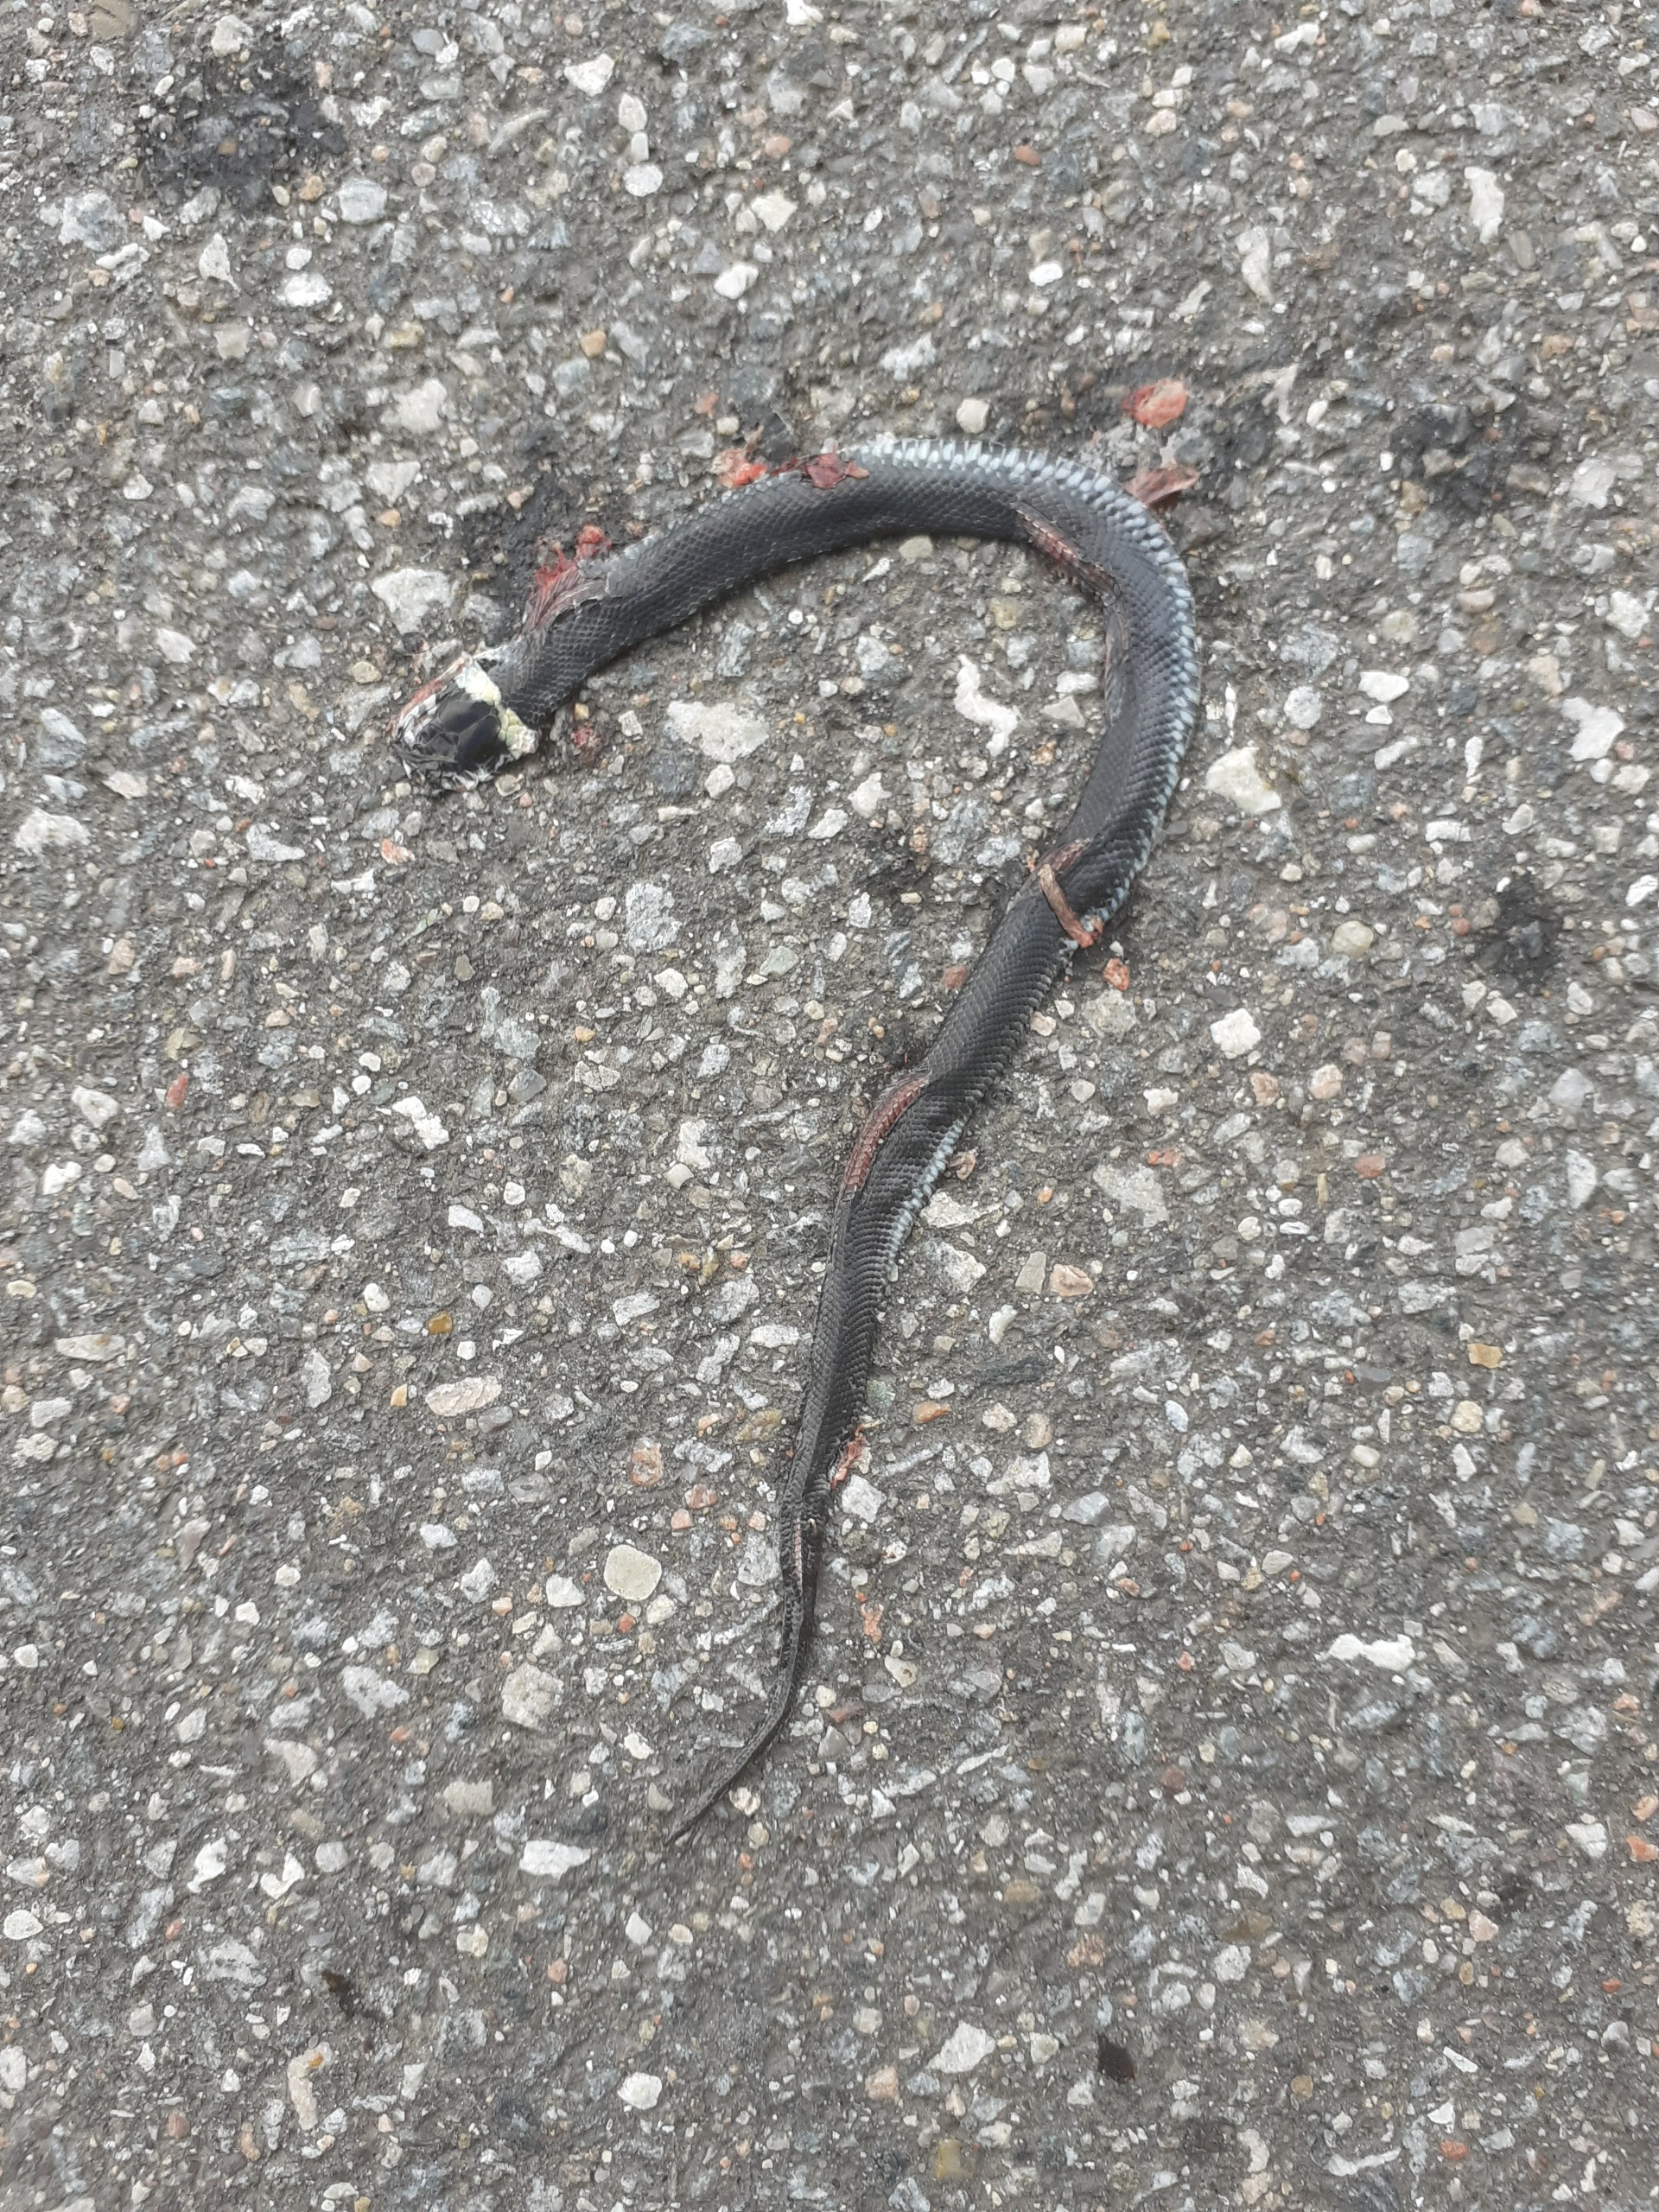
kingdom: Animalia
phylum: Chordata
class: Squamata
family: Colubridae
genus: Natrix
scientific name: Natrix natrix
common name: Snog
